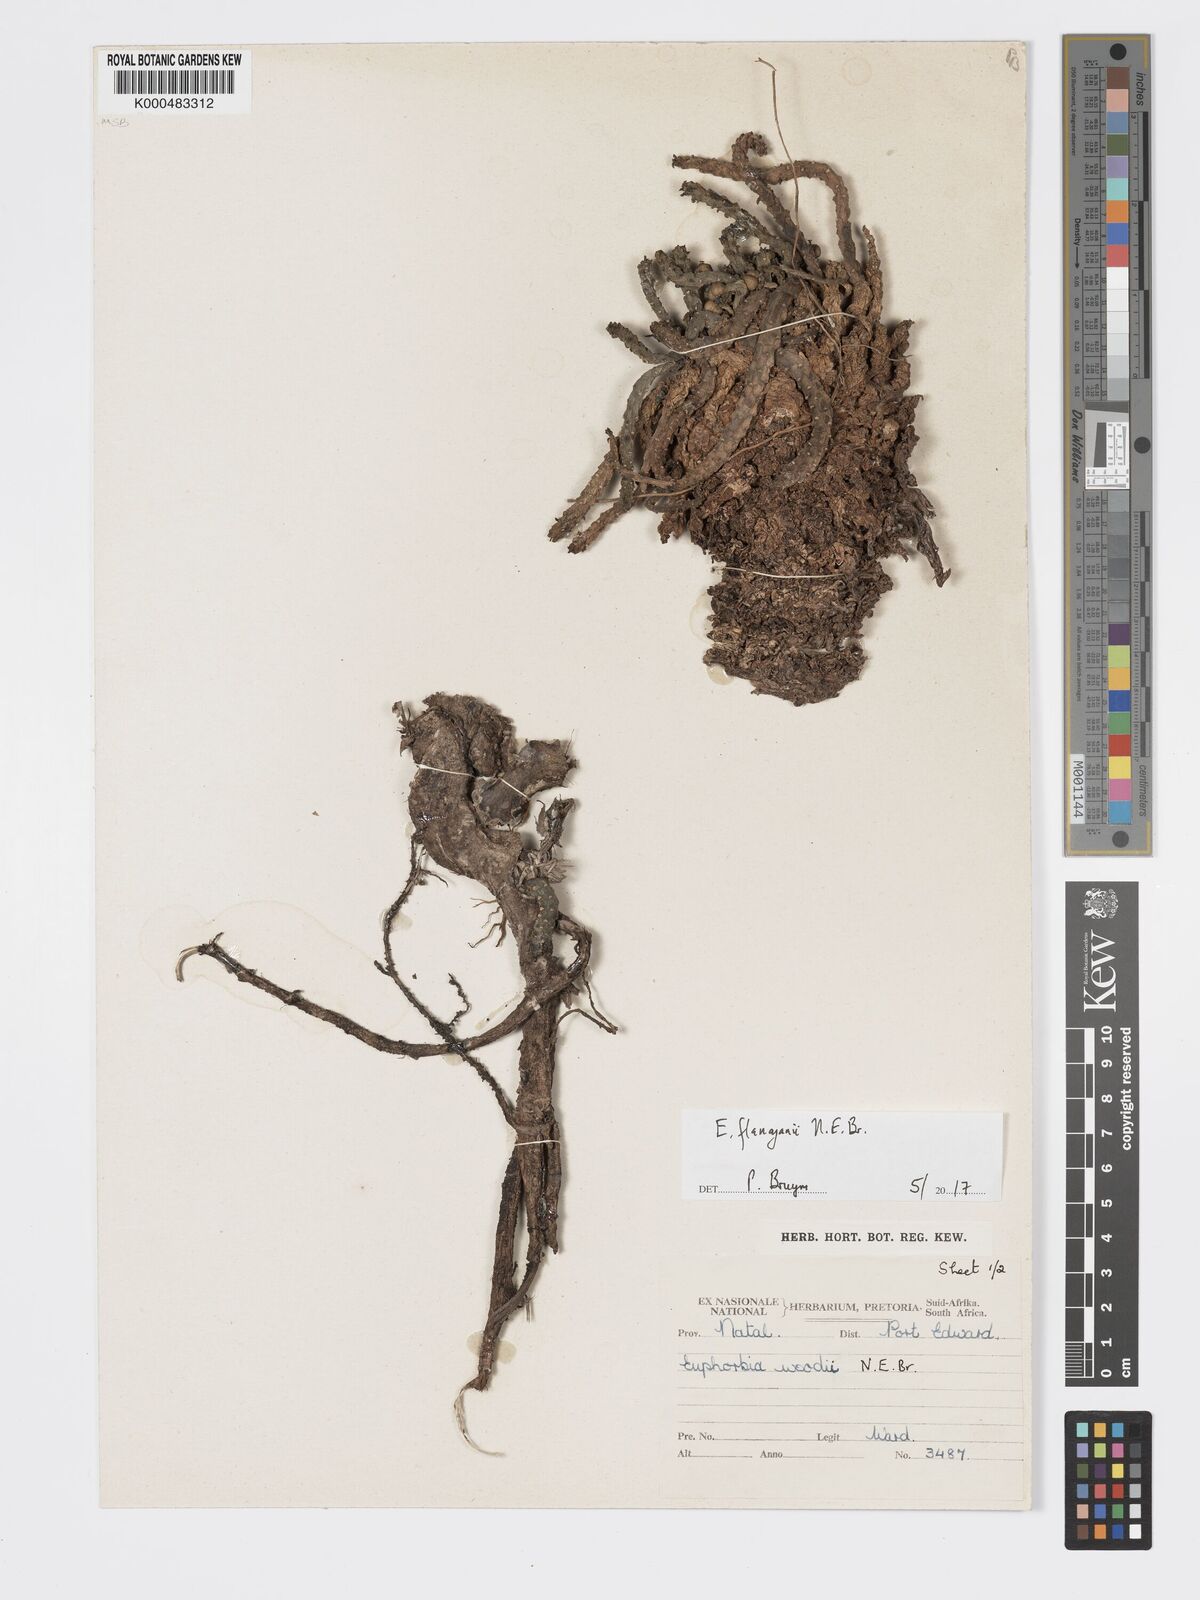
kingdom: Plantae
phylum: Tracheophyta
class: Magnoliopsida
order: Malpighiales
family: Euphorbiaceae
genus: Euphorbia
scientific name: Euphorbia woodii
